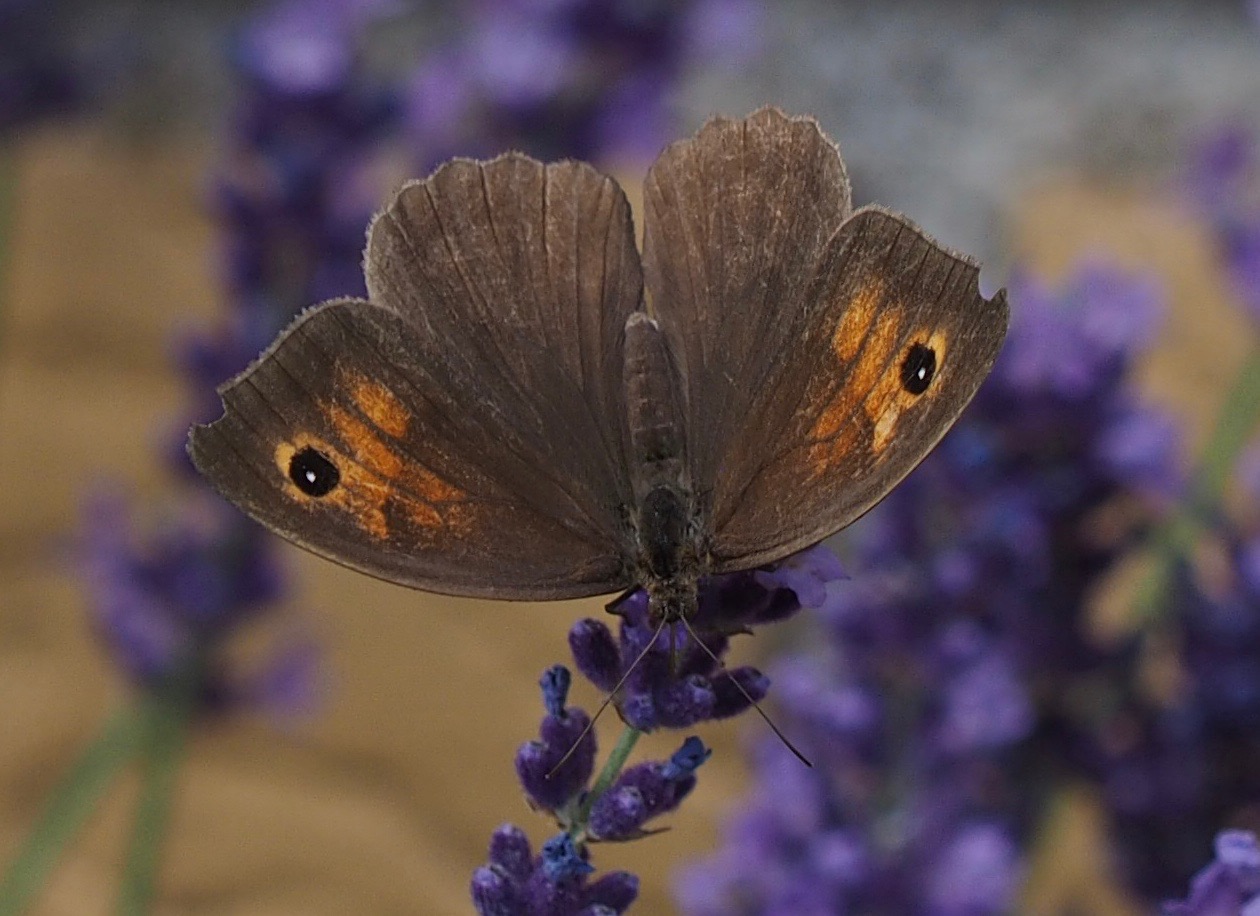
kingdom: Animalia
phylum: Arthropoda
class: Insecta
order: Lepidoptera
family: Nymphalidae
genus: Maniola
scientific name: Maniola jurtina
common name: Græsrandøje
